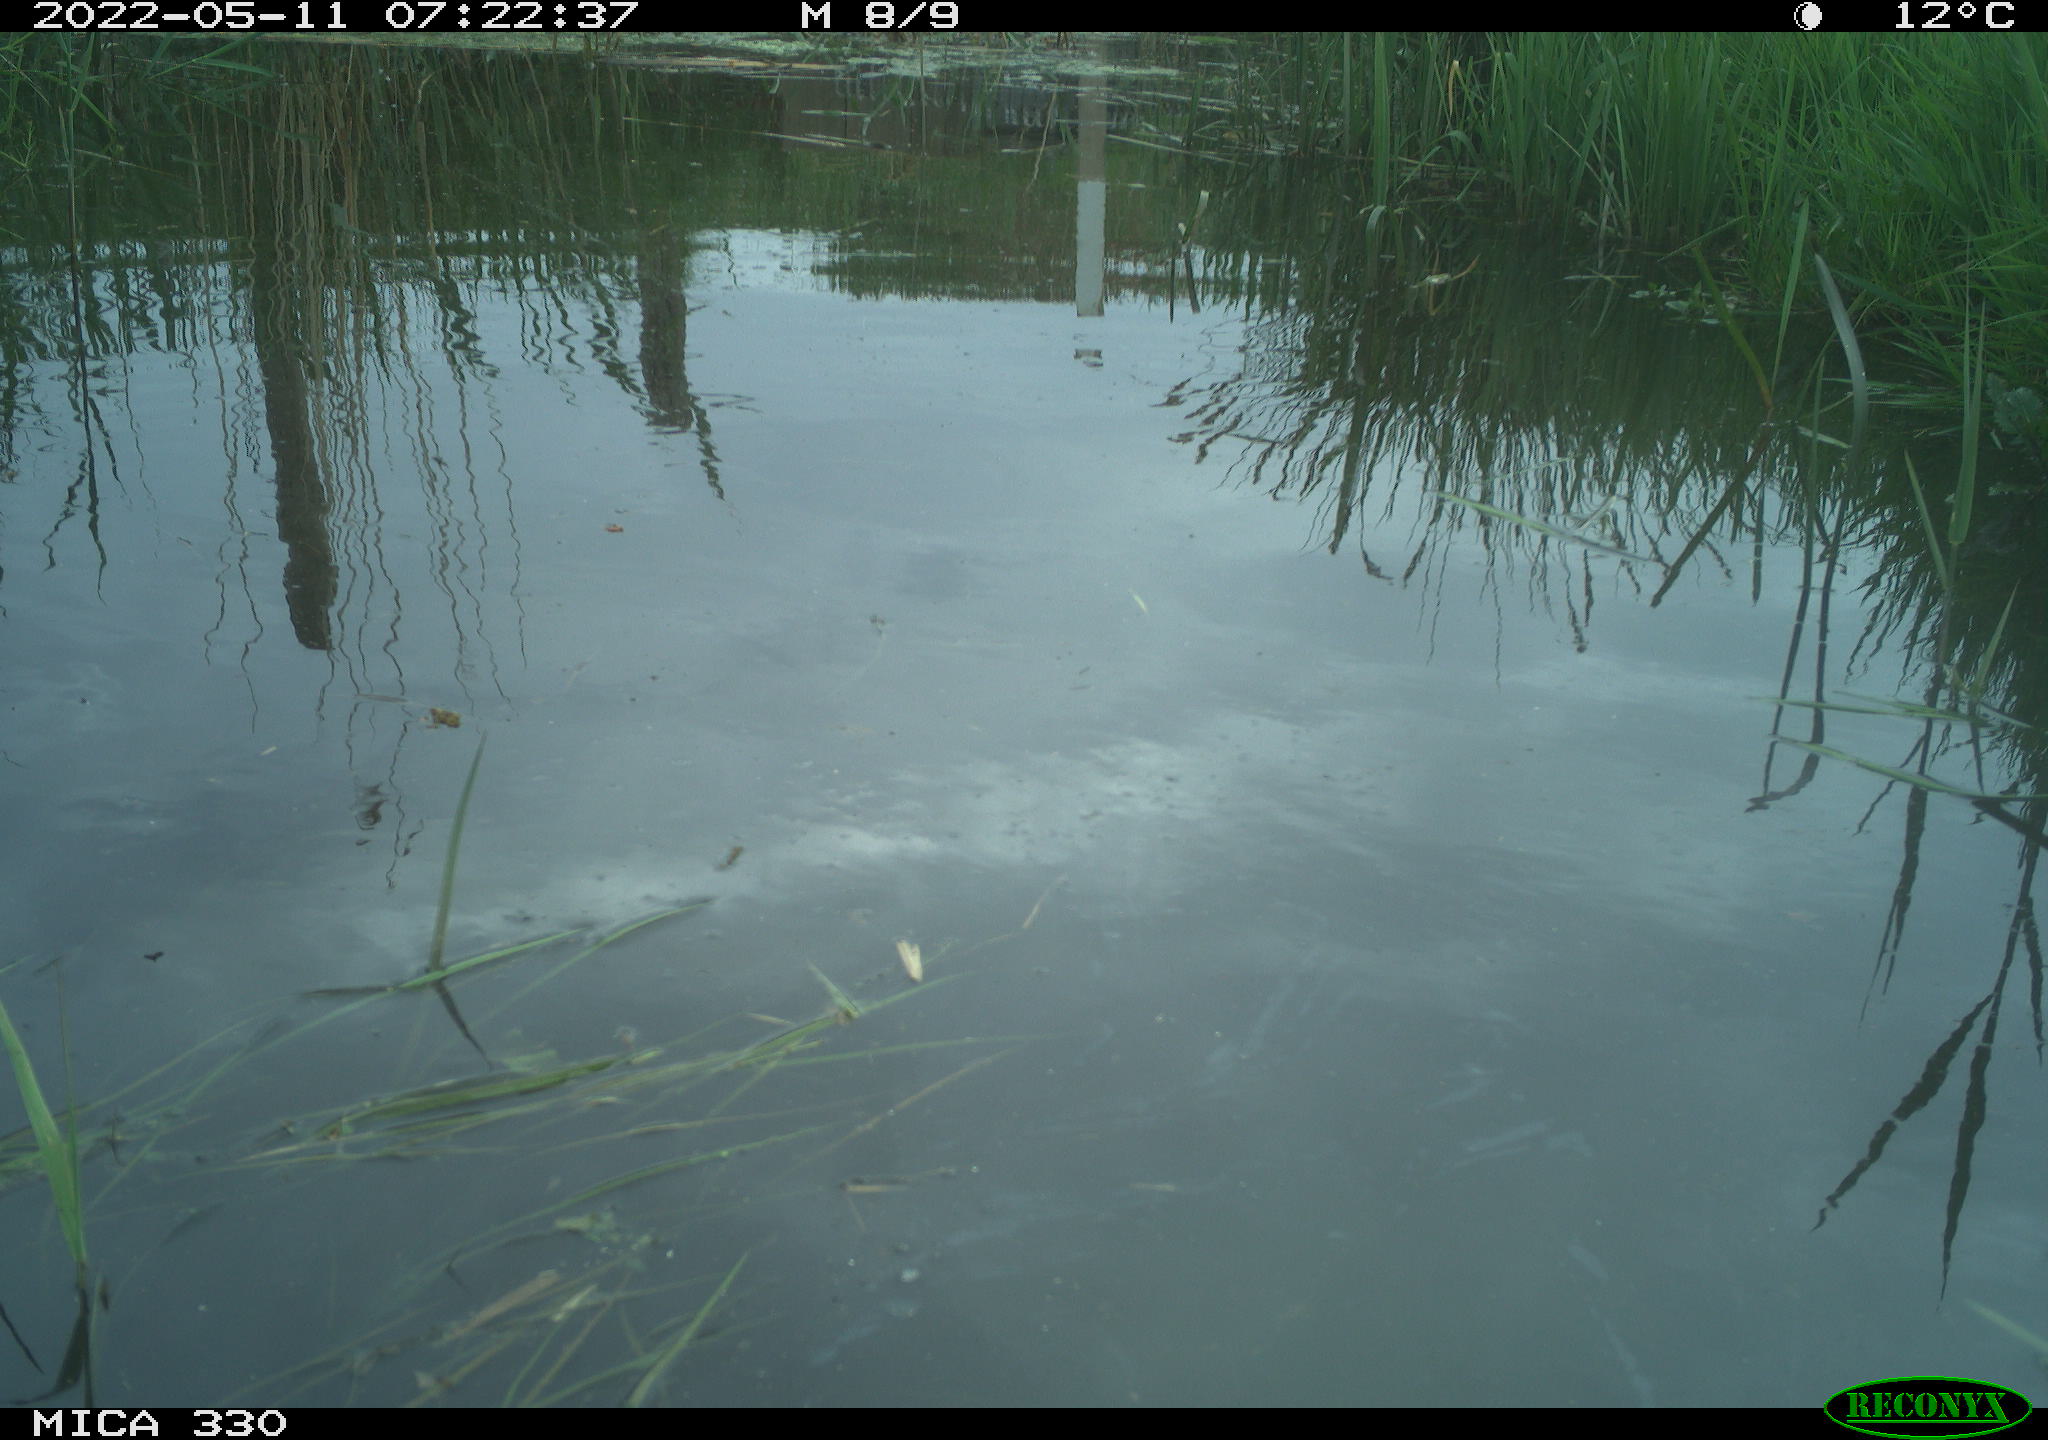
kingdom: Animalia
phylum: Chordata
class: Aves
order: Anseriformes
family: Anatidae
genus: Anas
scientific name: Anas platyrhynchos
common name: Mallard
